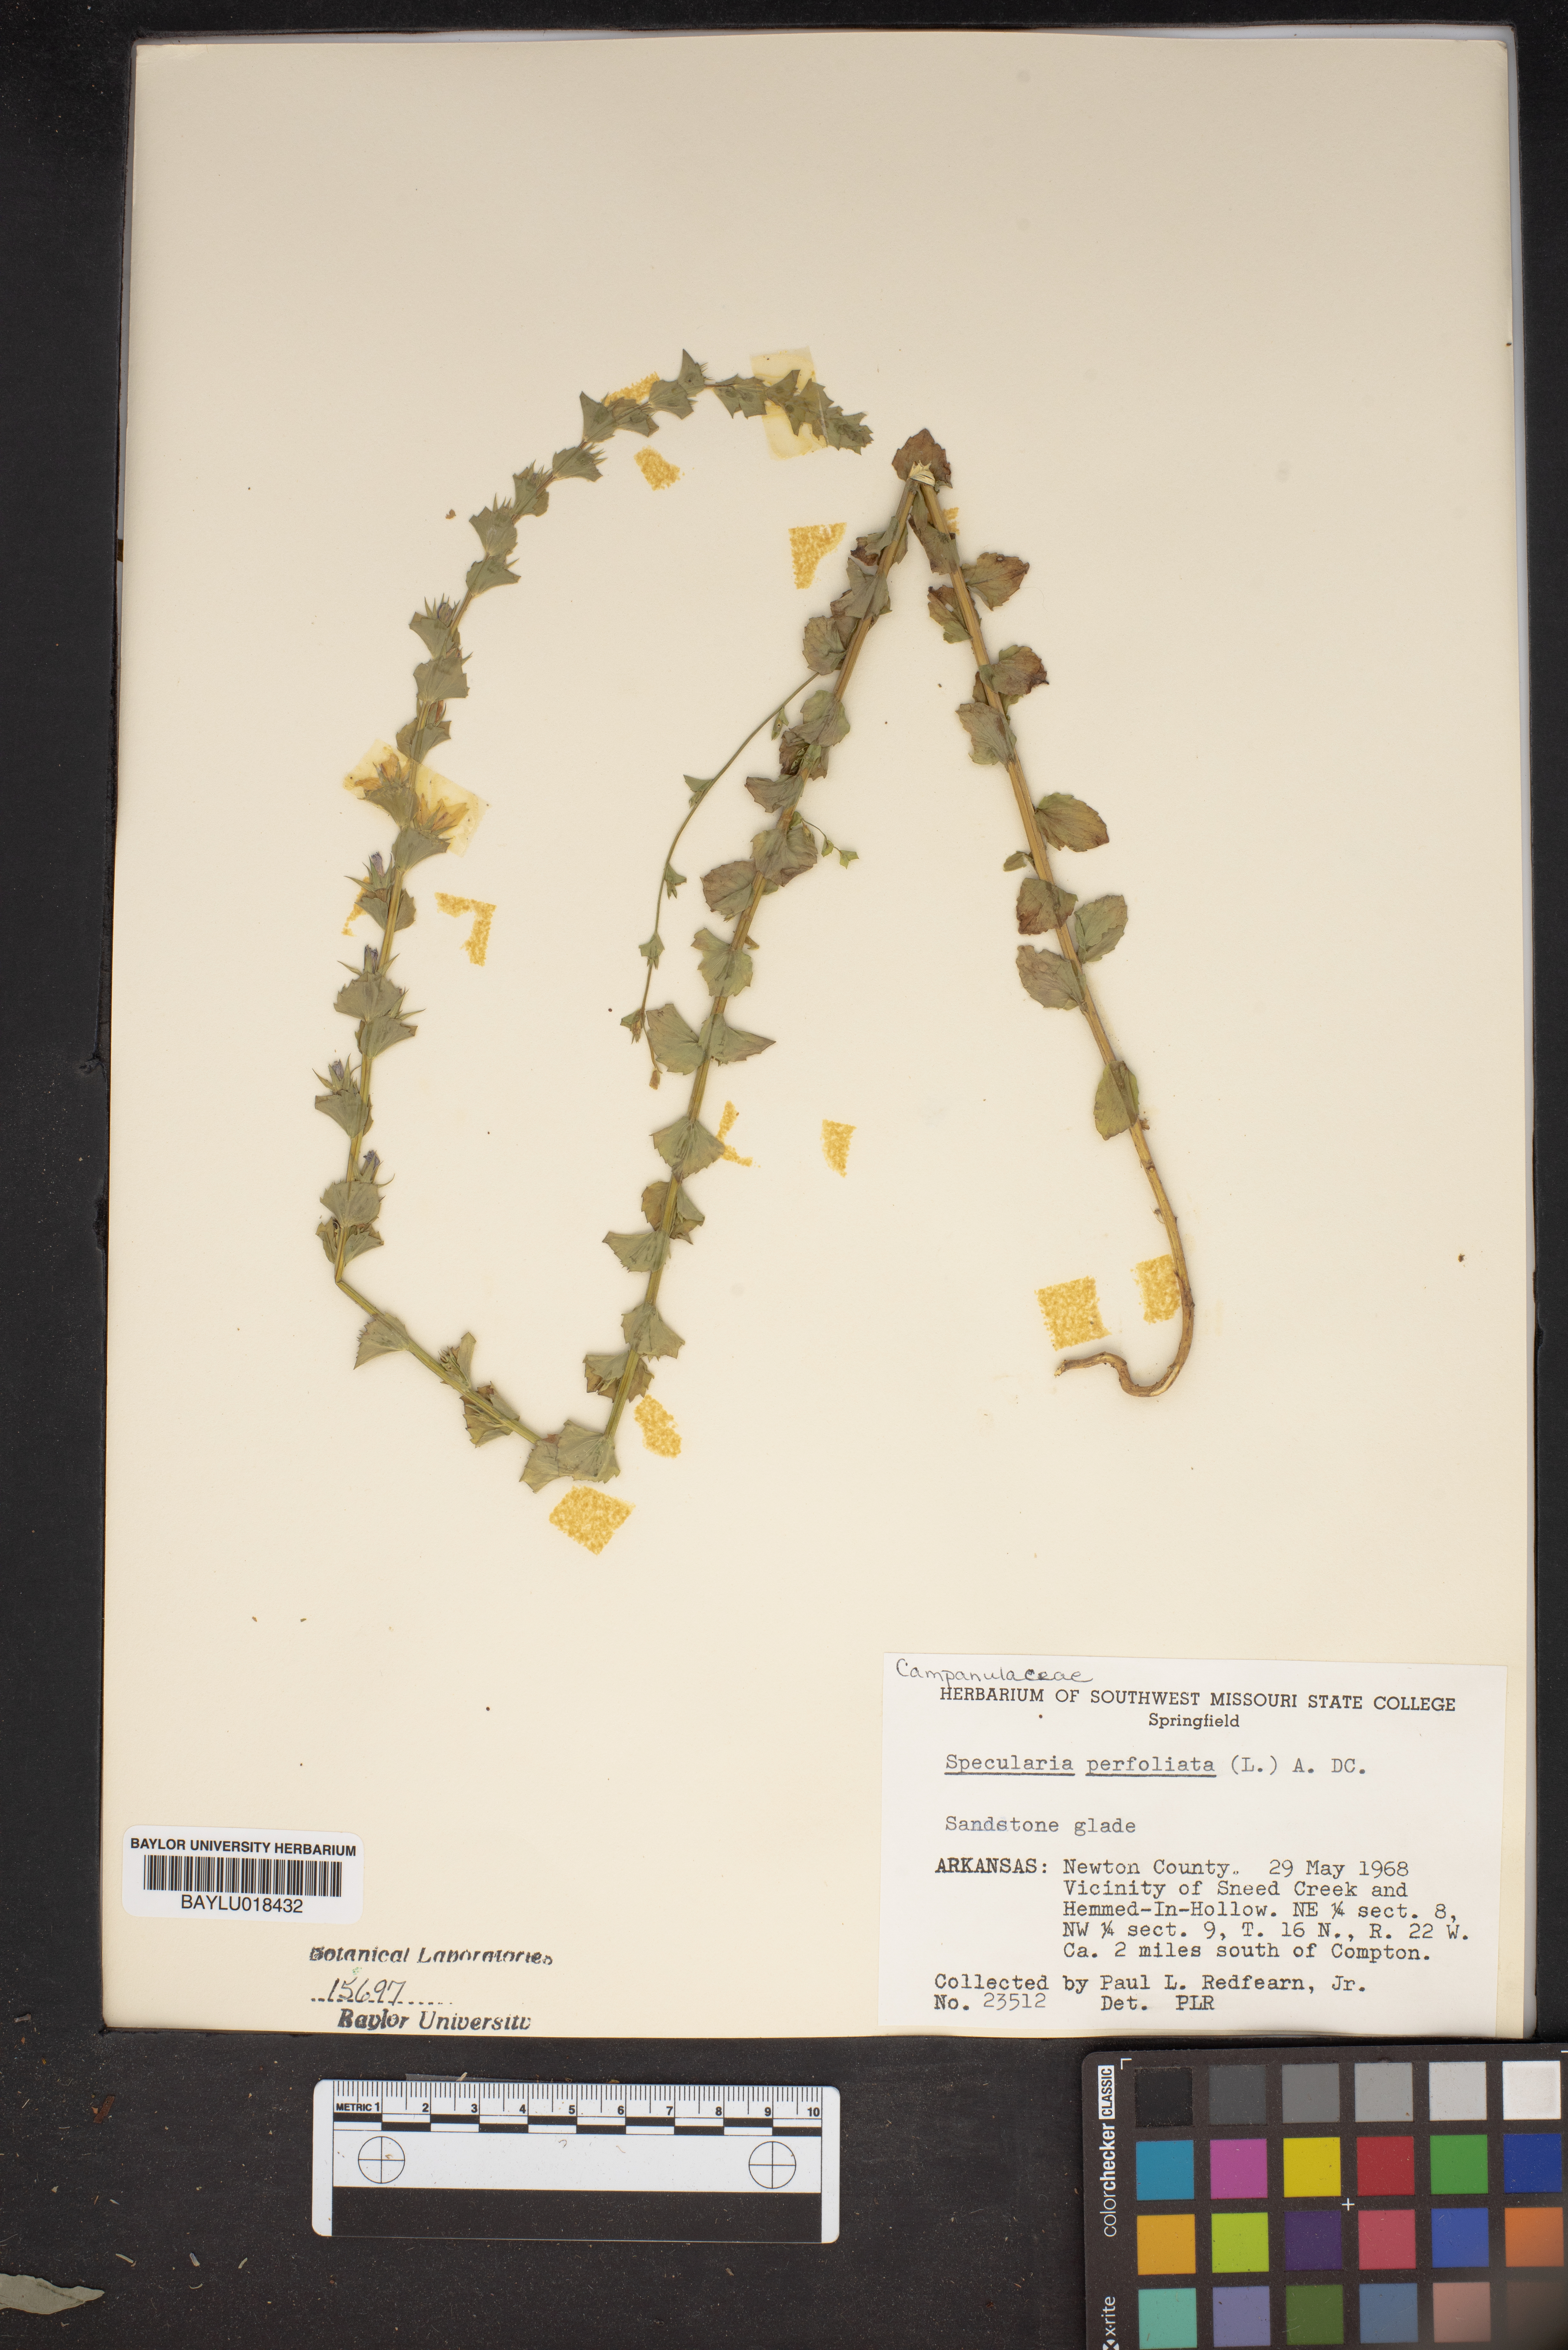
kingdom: Plantae
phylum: Tracheophyta
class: Magnoliopsida
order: Asterales
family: Campanulaceae
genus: Triodanis
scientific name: Triodanis perfoliata
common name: Clasping venus' looking-glass
